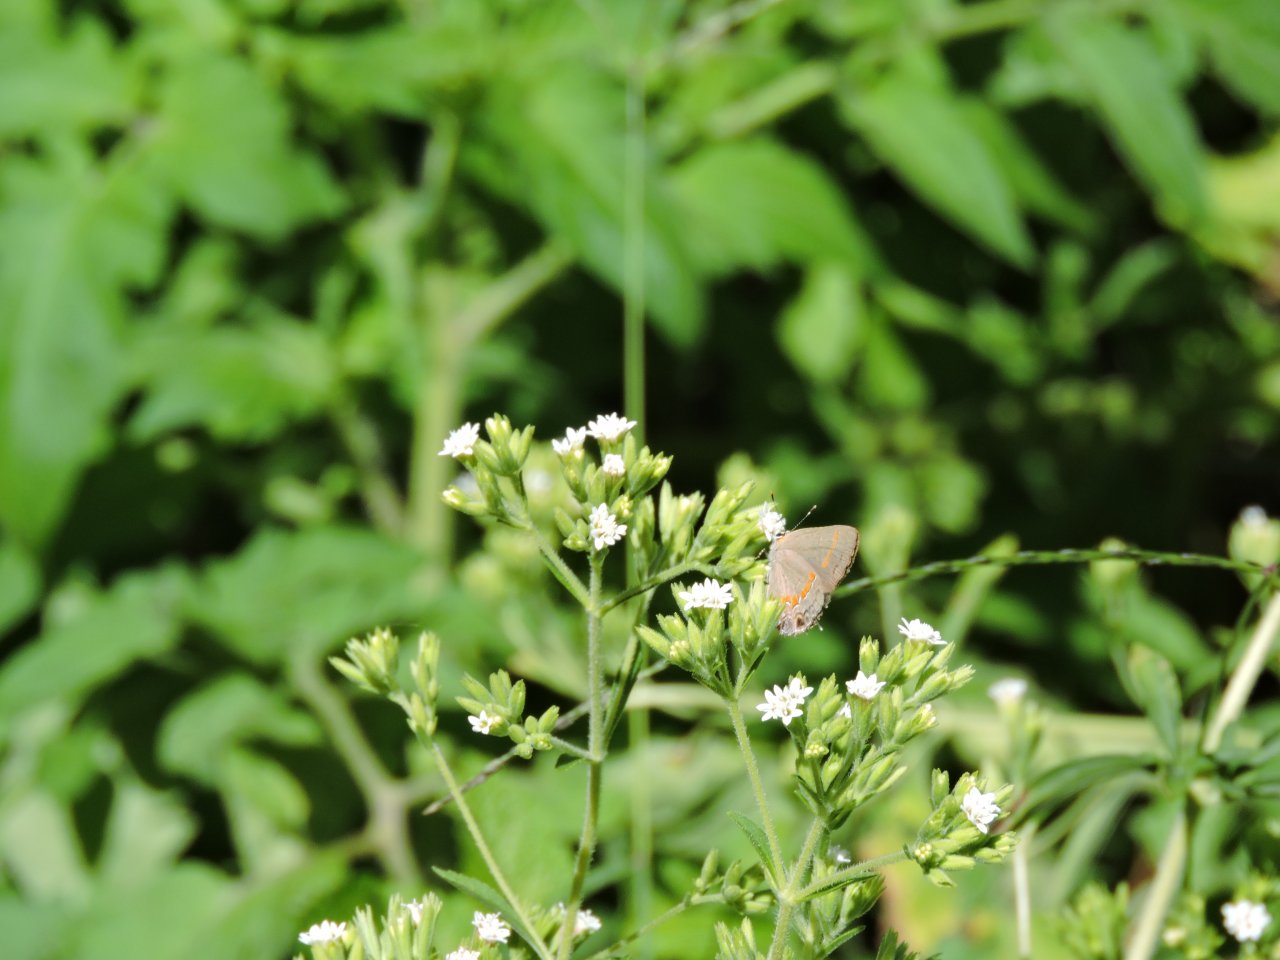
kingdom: Animalia
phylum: Arthropoda
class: Insecta
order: Lepidoptera
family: Lycaenidae
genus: Calycopis
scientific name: Calycopis cecrops
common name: Red-banded Hairstreak
